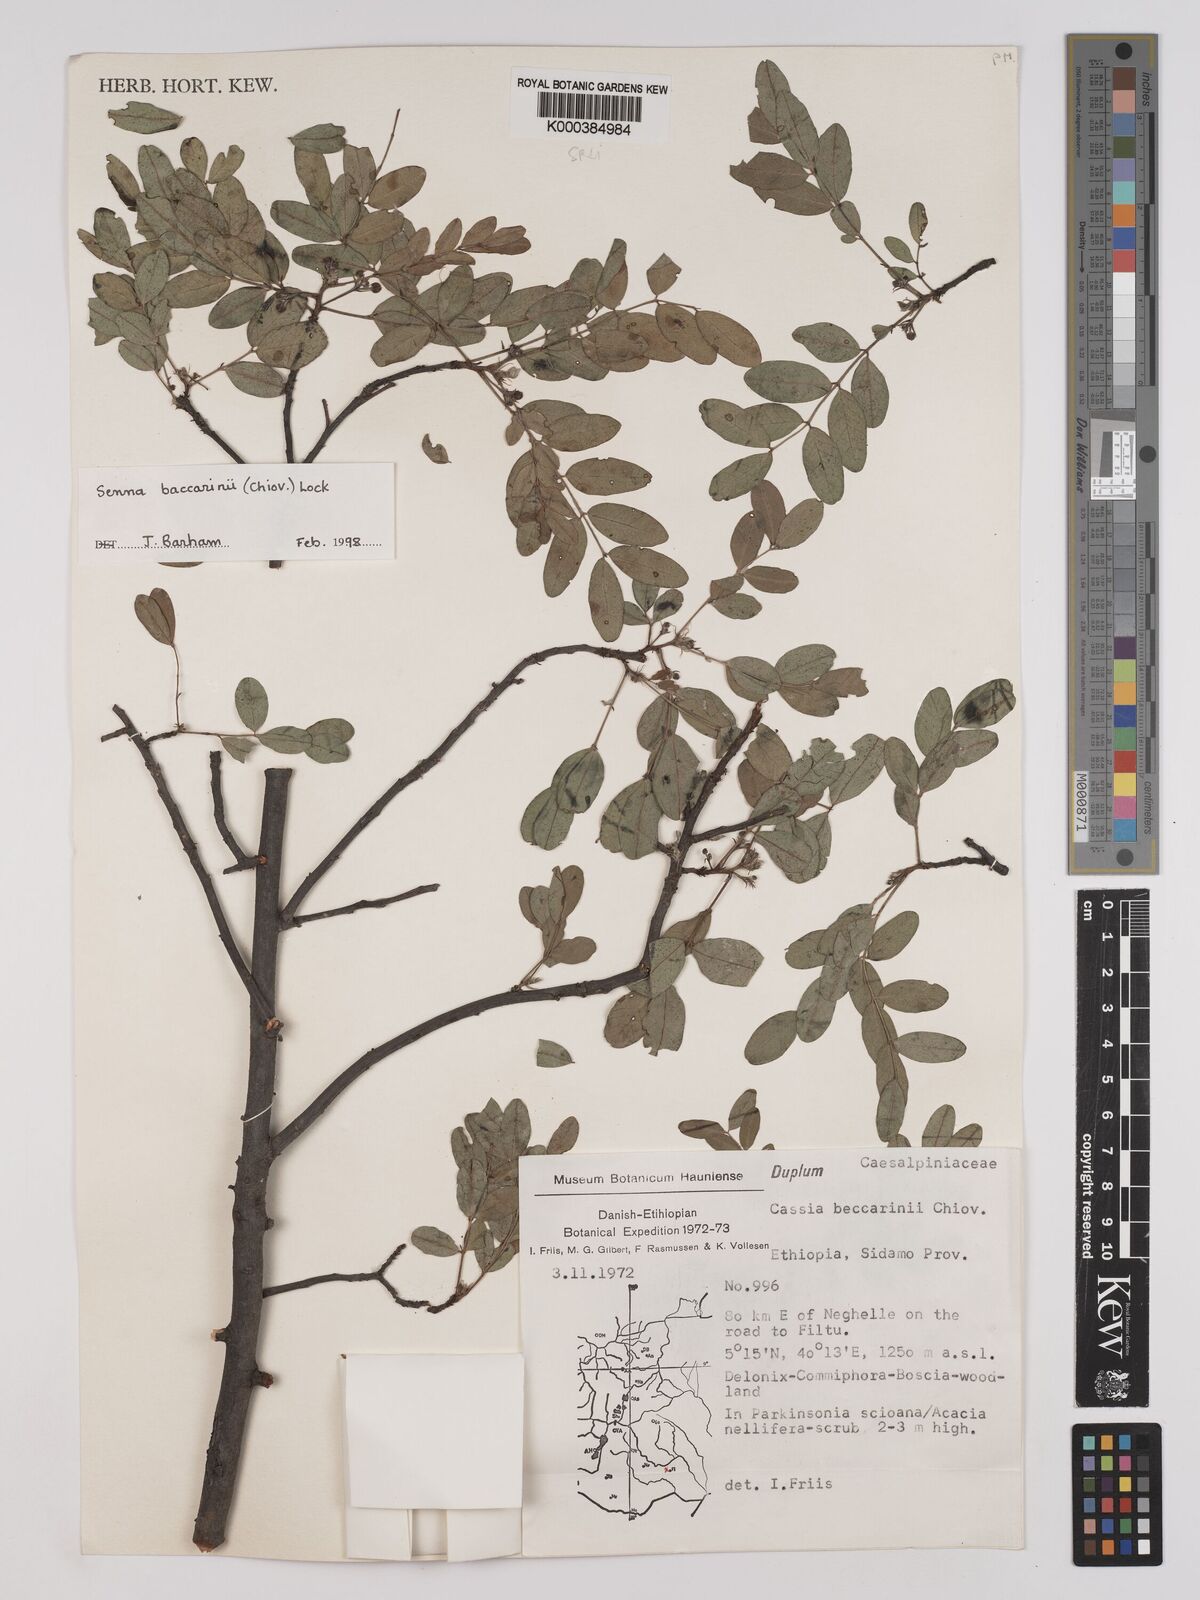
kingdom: Plantae
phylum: Tracheophyta
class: Magnoliopsida
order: Fabales
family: Fabaceae
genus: Senna
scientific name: Senna baccarinii
